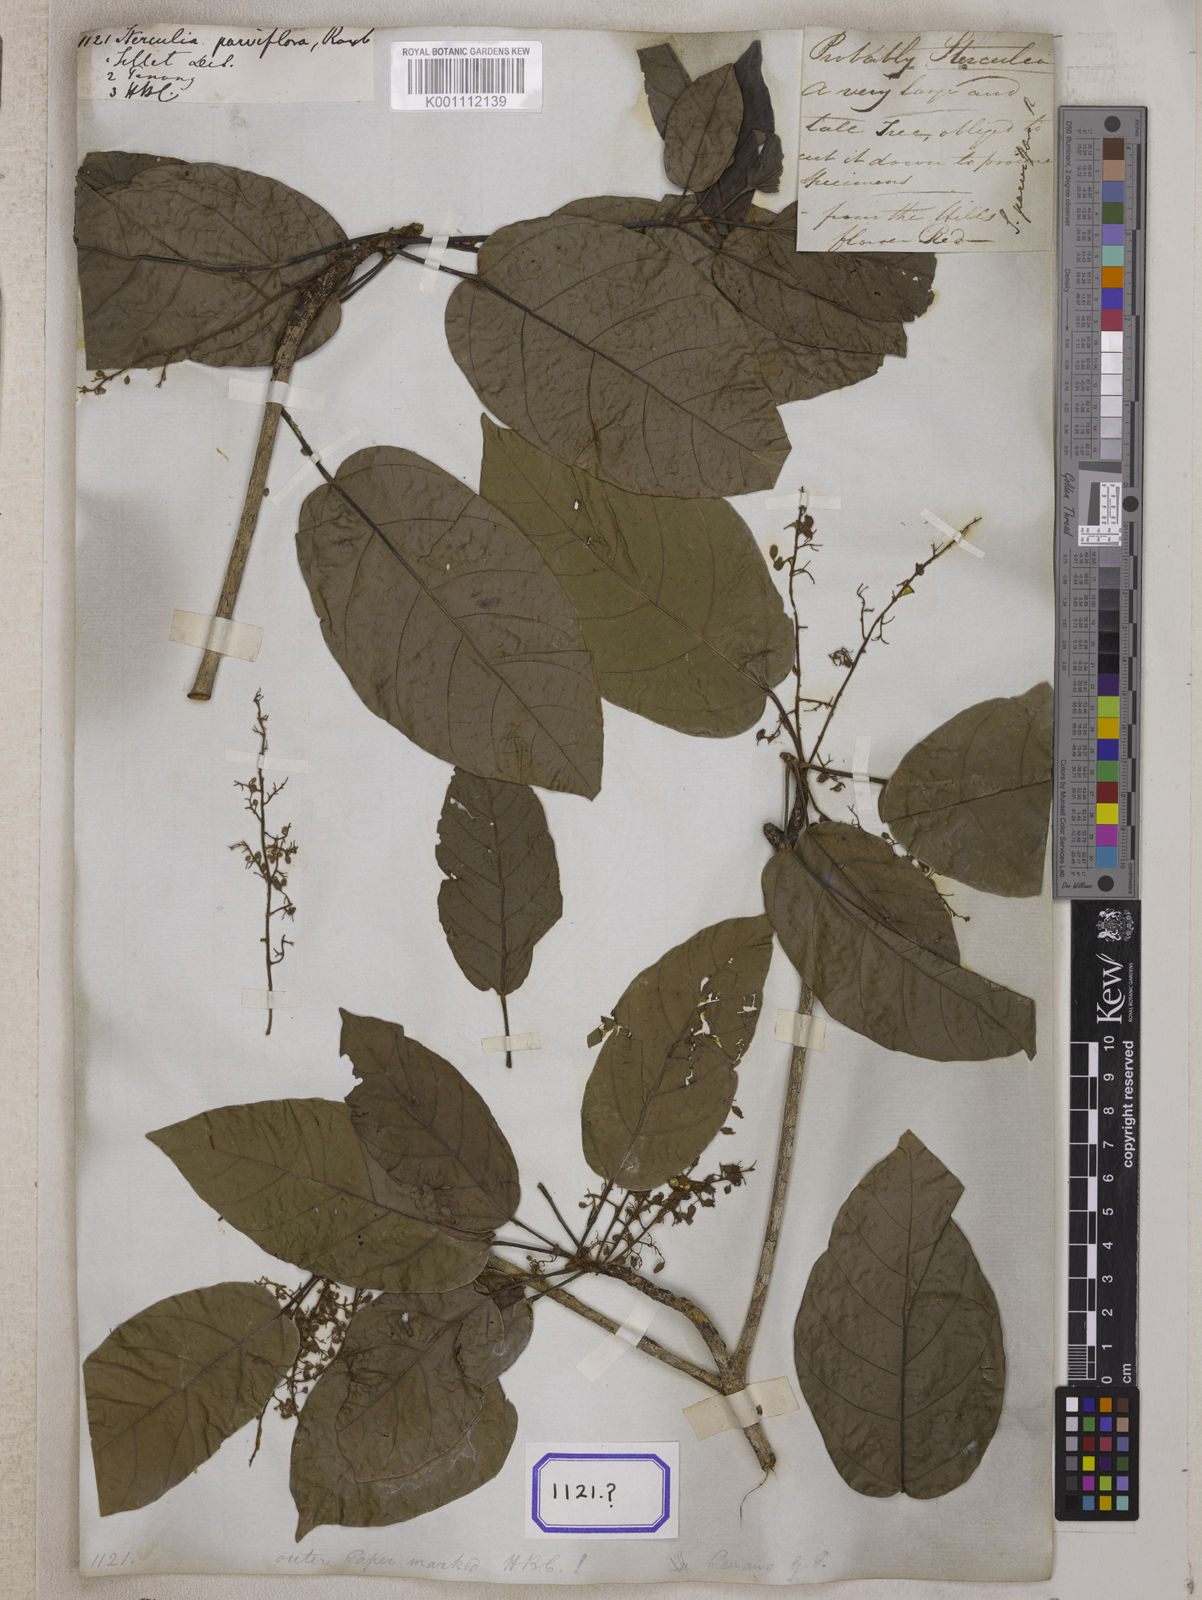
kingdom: Plantae
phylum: Tracheophyta
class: Magnoliopsida
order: Malvales
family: Malvaceae
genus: Sterculia
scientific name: Sterculia
